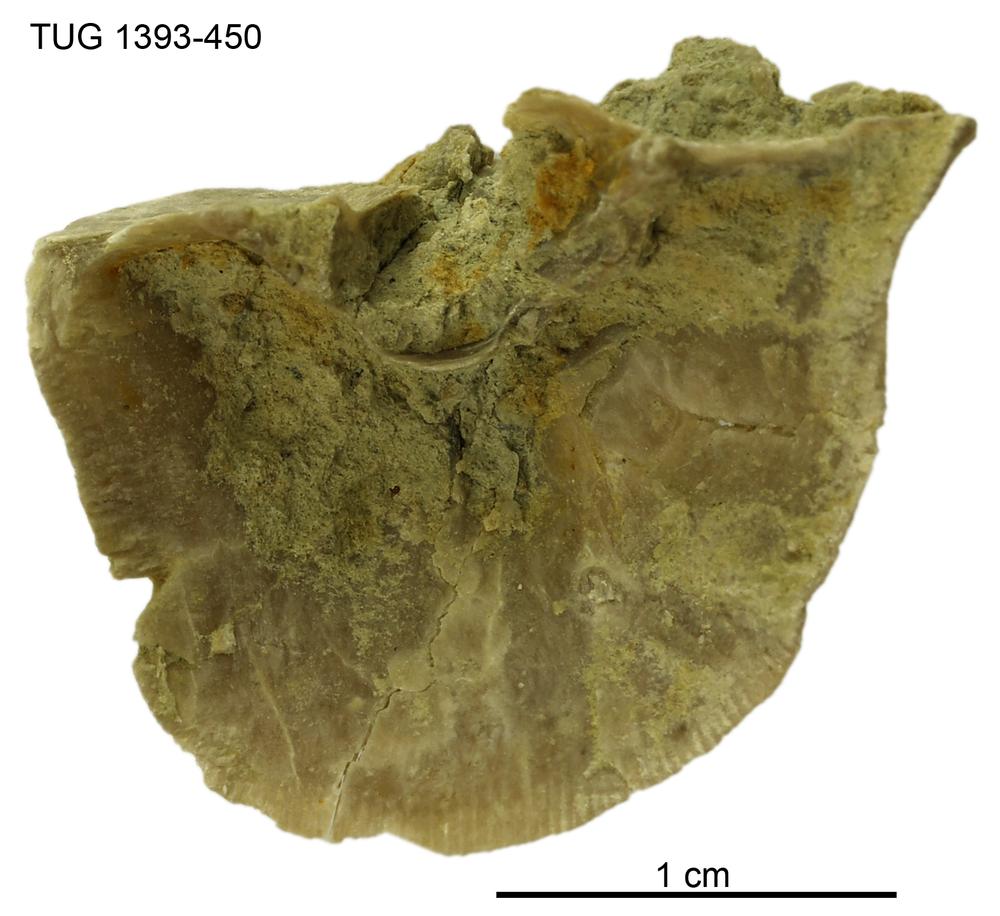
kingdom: Animalia
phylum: Brachiopoda
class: Rhynchonellata
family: Clitambonitidae
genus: Vellamo
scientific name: Vellamo
